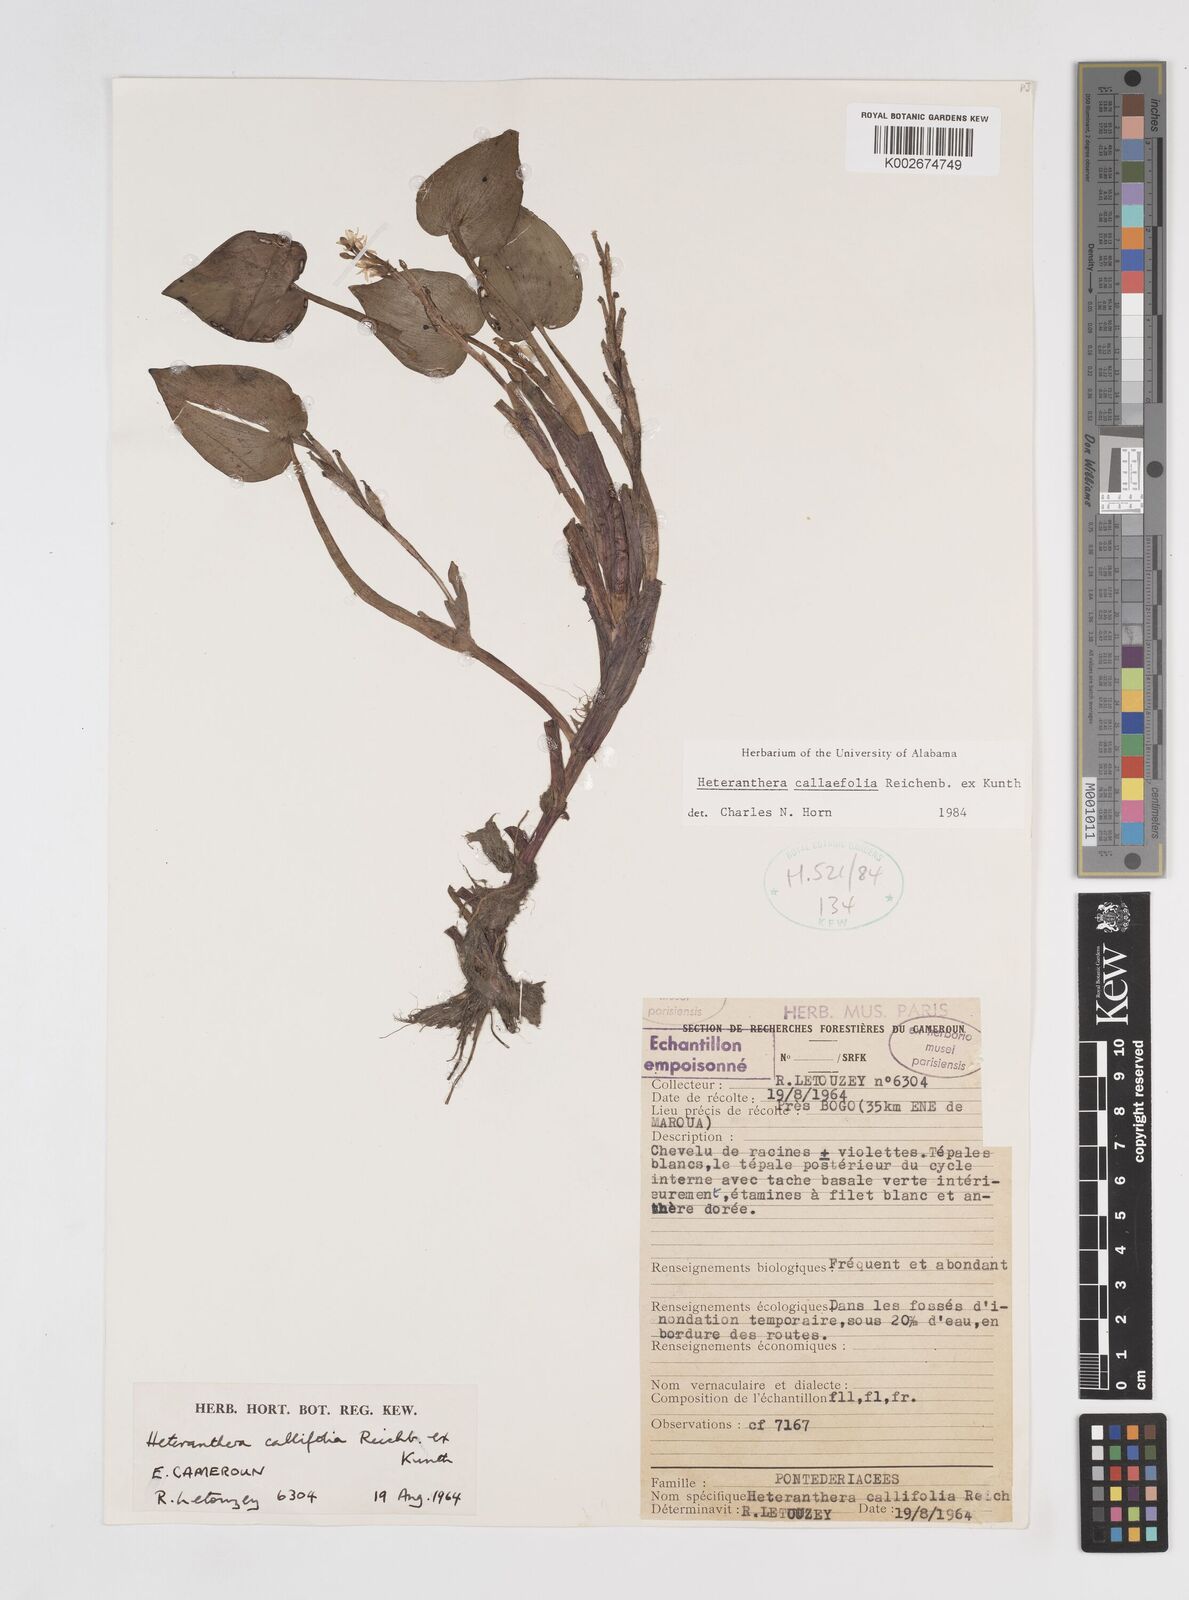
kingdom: Plantae
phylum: Tracheophyta
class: Liliopsida
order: Commelinales
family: Pontederiaceae
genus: Heteranthera
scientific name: Heteranthera callifolia
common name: Mud plantain
